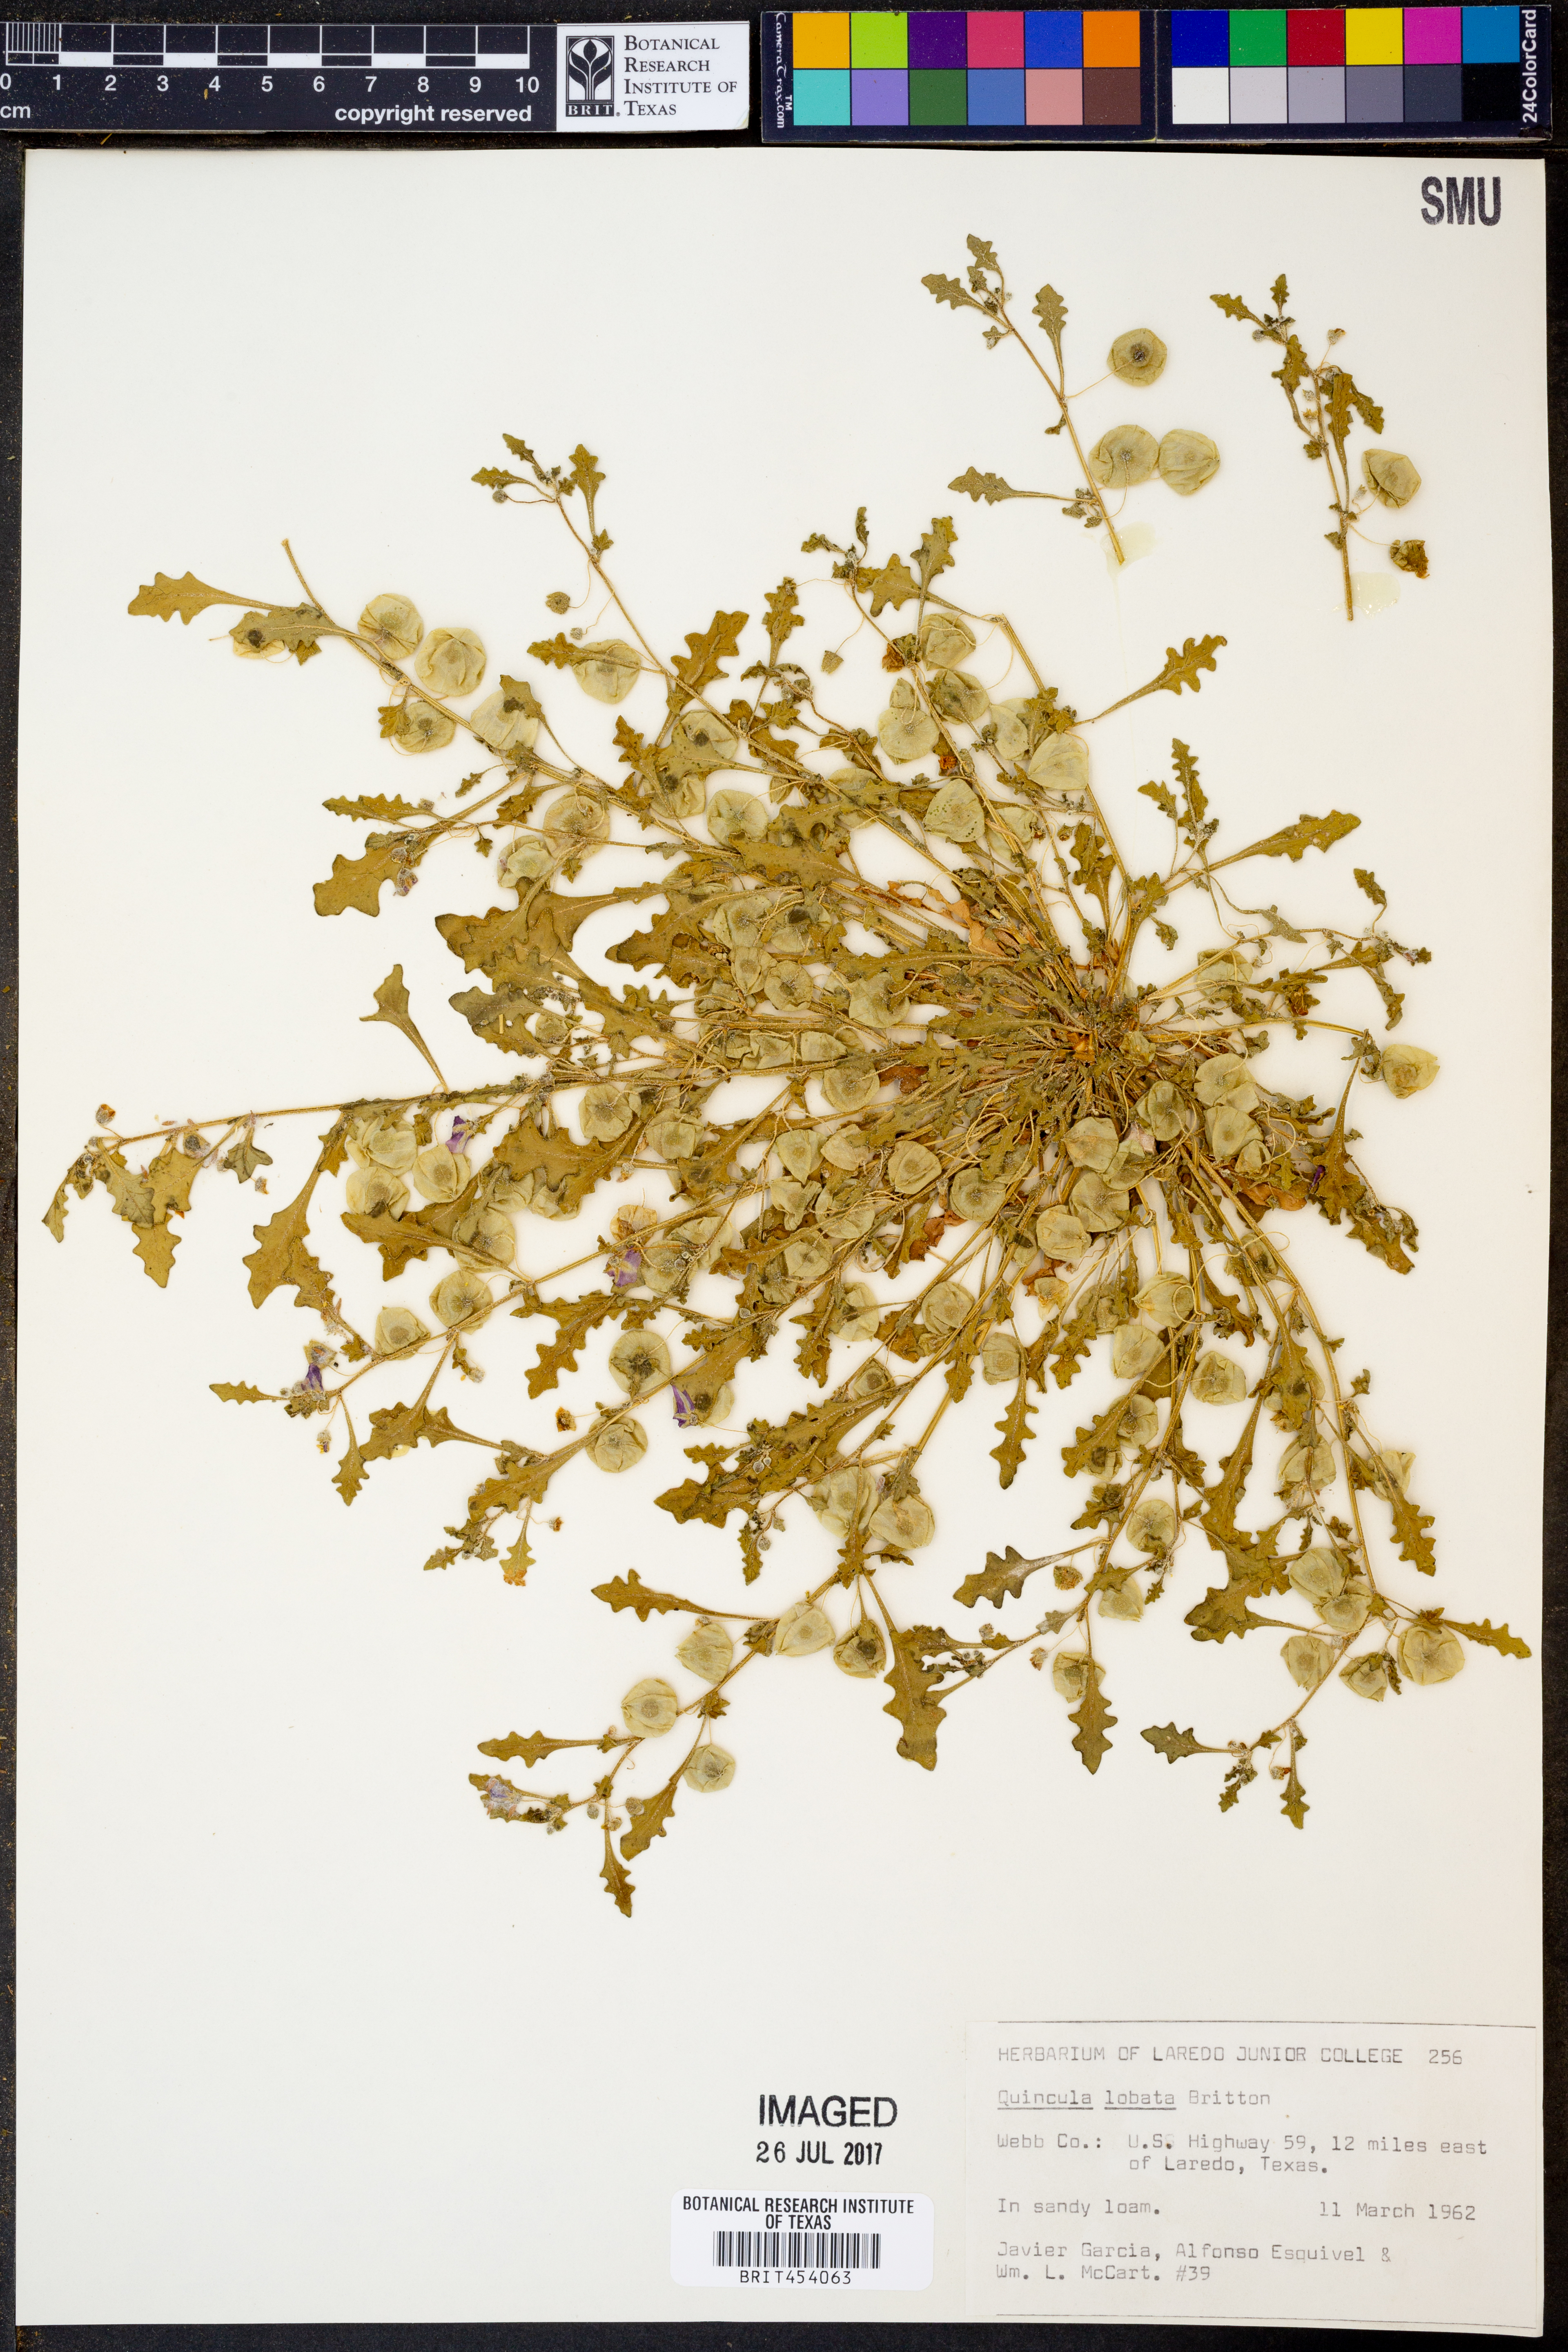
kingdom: Plantae
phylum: Tracheophyta
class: Magnoliopsida
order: Solanales
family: Solanaceae
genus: Quincula
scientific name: Quincula lobata
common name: Purple-ground-cherry
